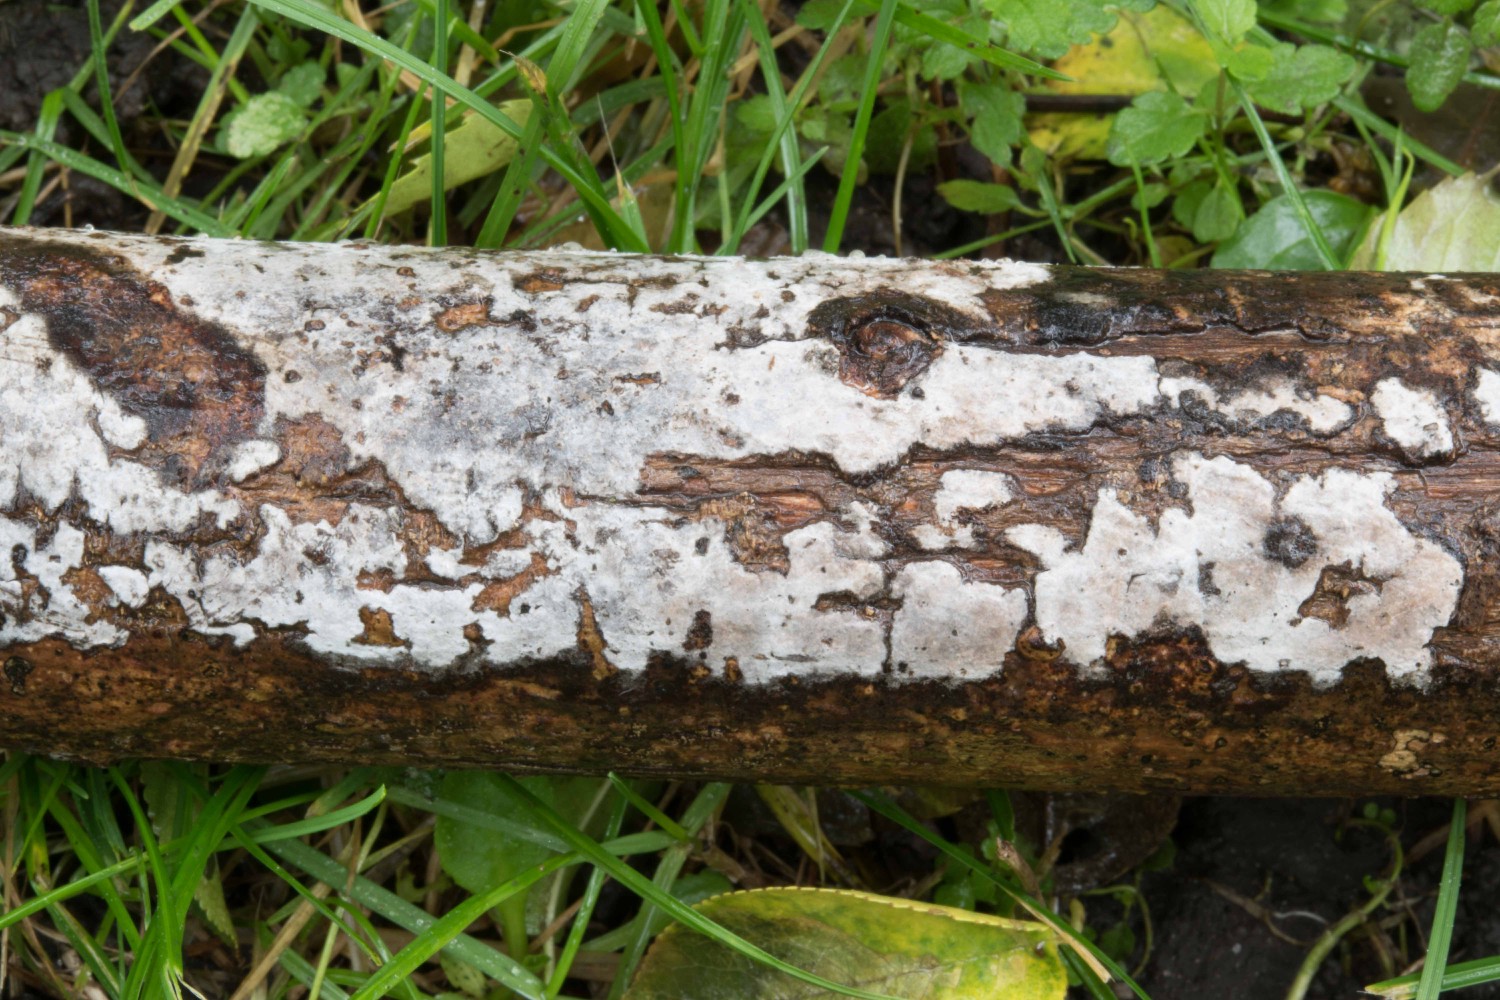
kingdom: Fungi
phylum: Basidiomycota
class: Agaricomycetes
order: Russulales
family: Peniophoraceae
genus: Peniophora
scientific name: Peniophora limitata
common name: mørkrandet voksskind
